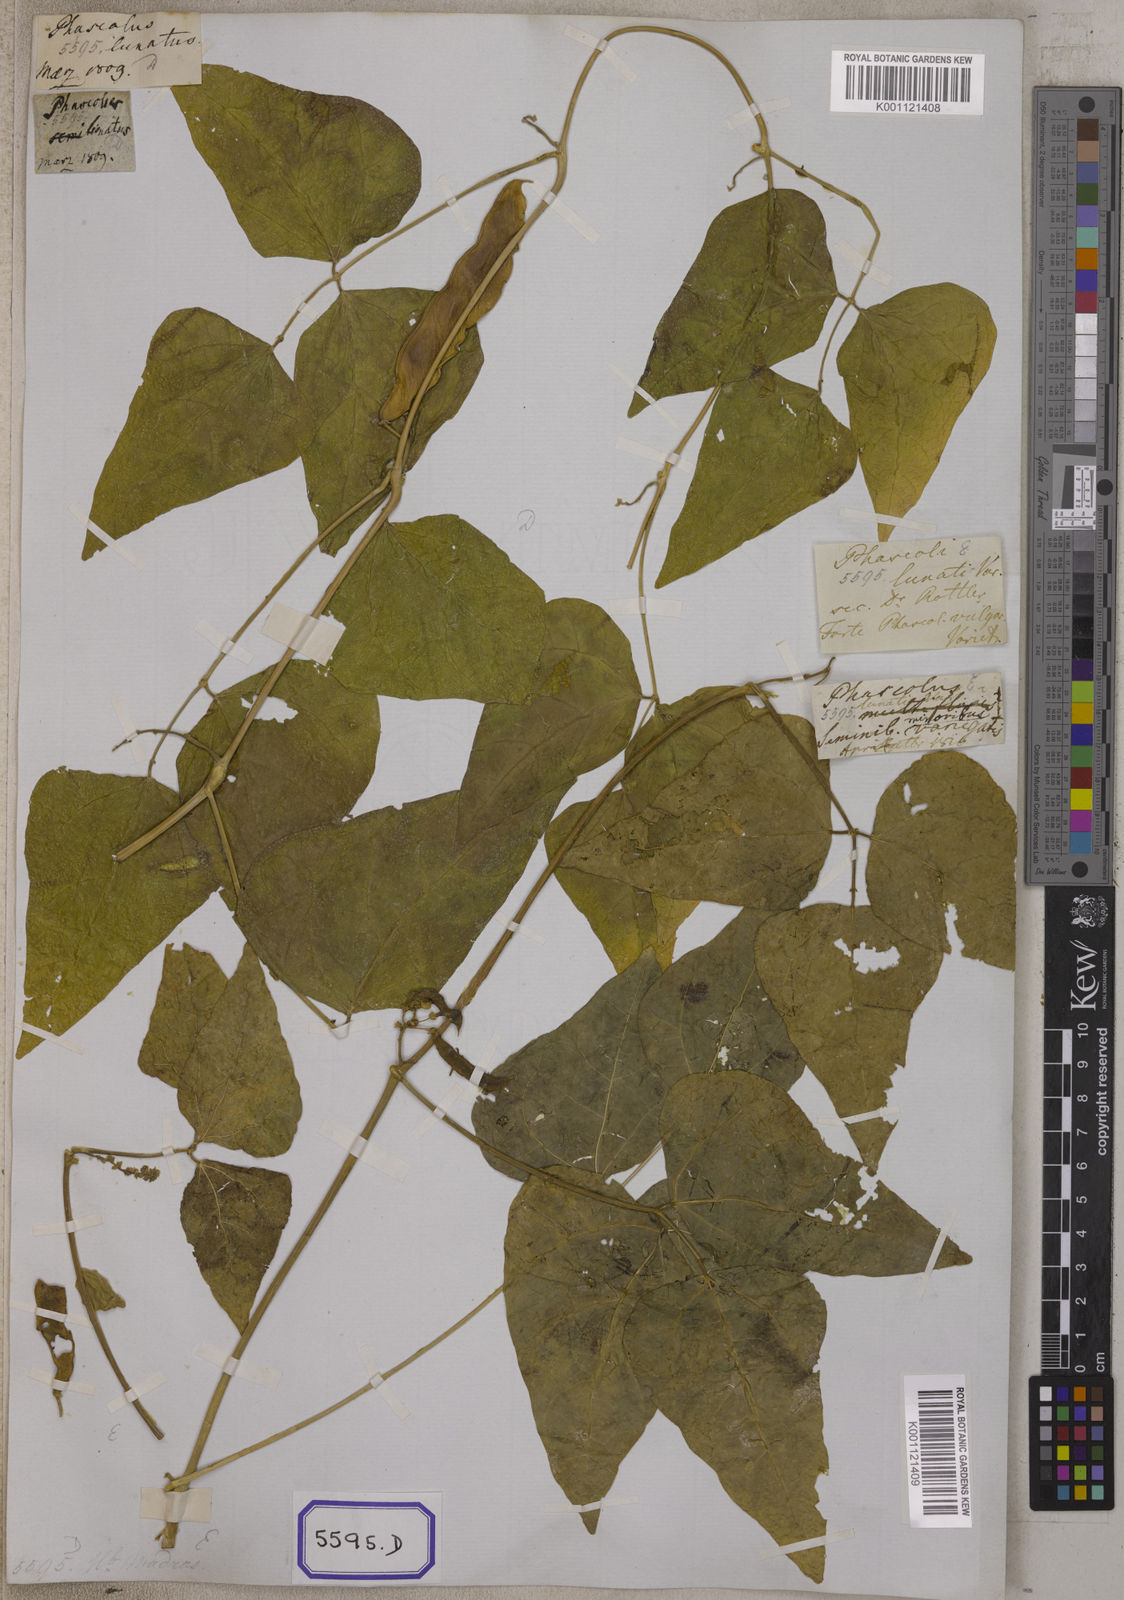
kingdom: Plantae
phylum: Tracheophyta
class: Magnoliopsida
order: Fabales
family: Fabaceae
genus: Phaseolus
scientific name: Phaseolus vulgaris
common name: Bean
